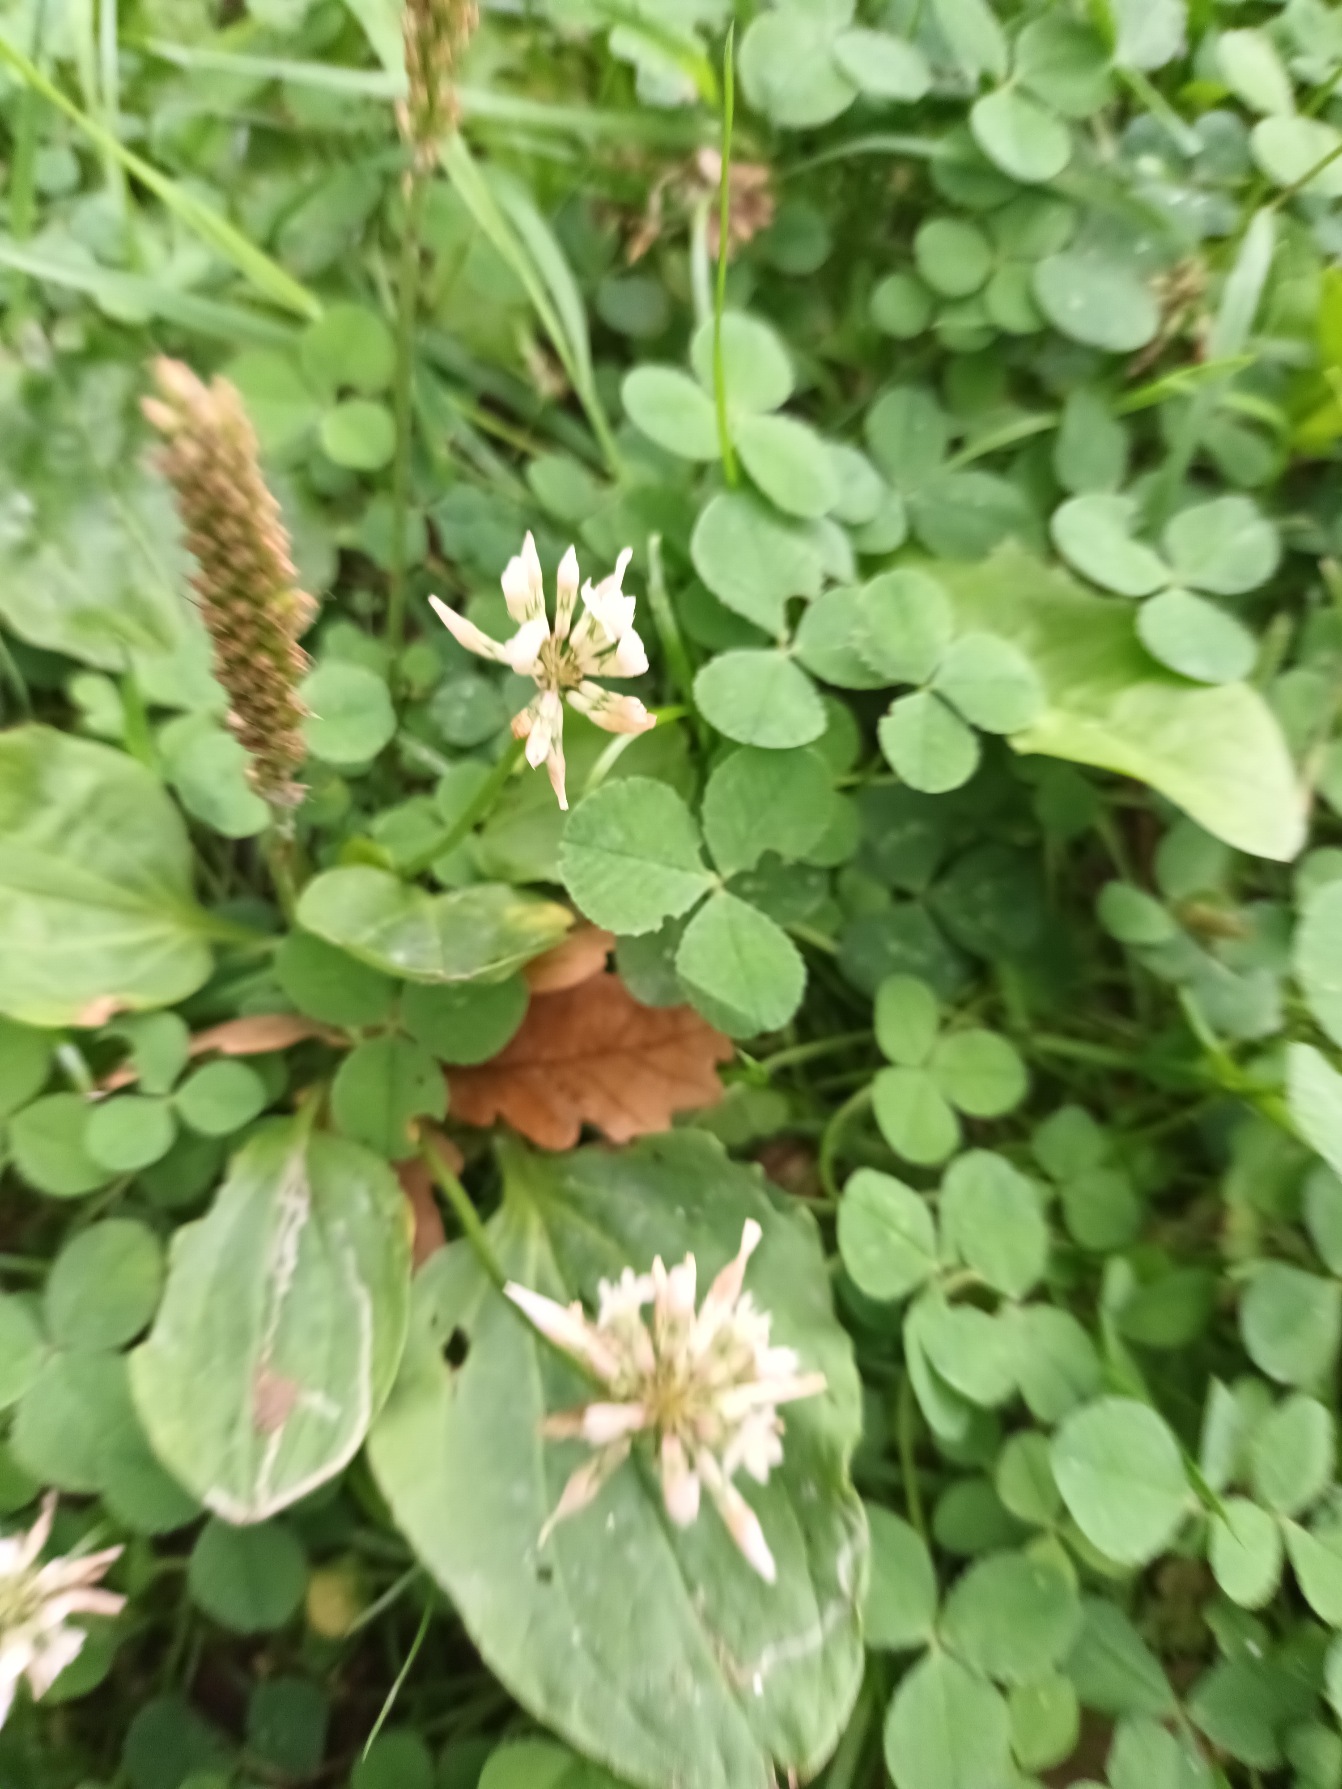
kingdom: Plantae
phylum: Tracheophyta
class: Magnoliopsida
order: Fabales
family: Fabaceae
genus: Trifolium
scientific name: Trifolium repens
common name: Hvid-kløver
